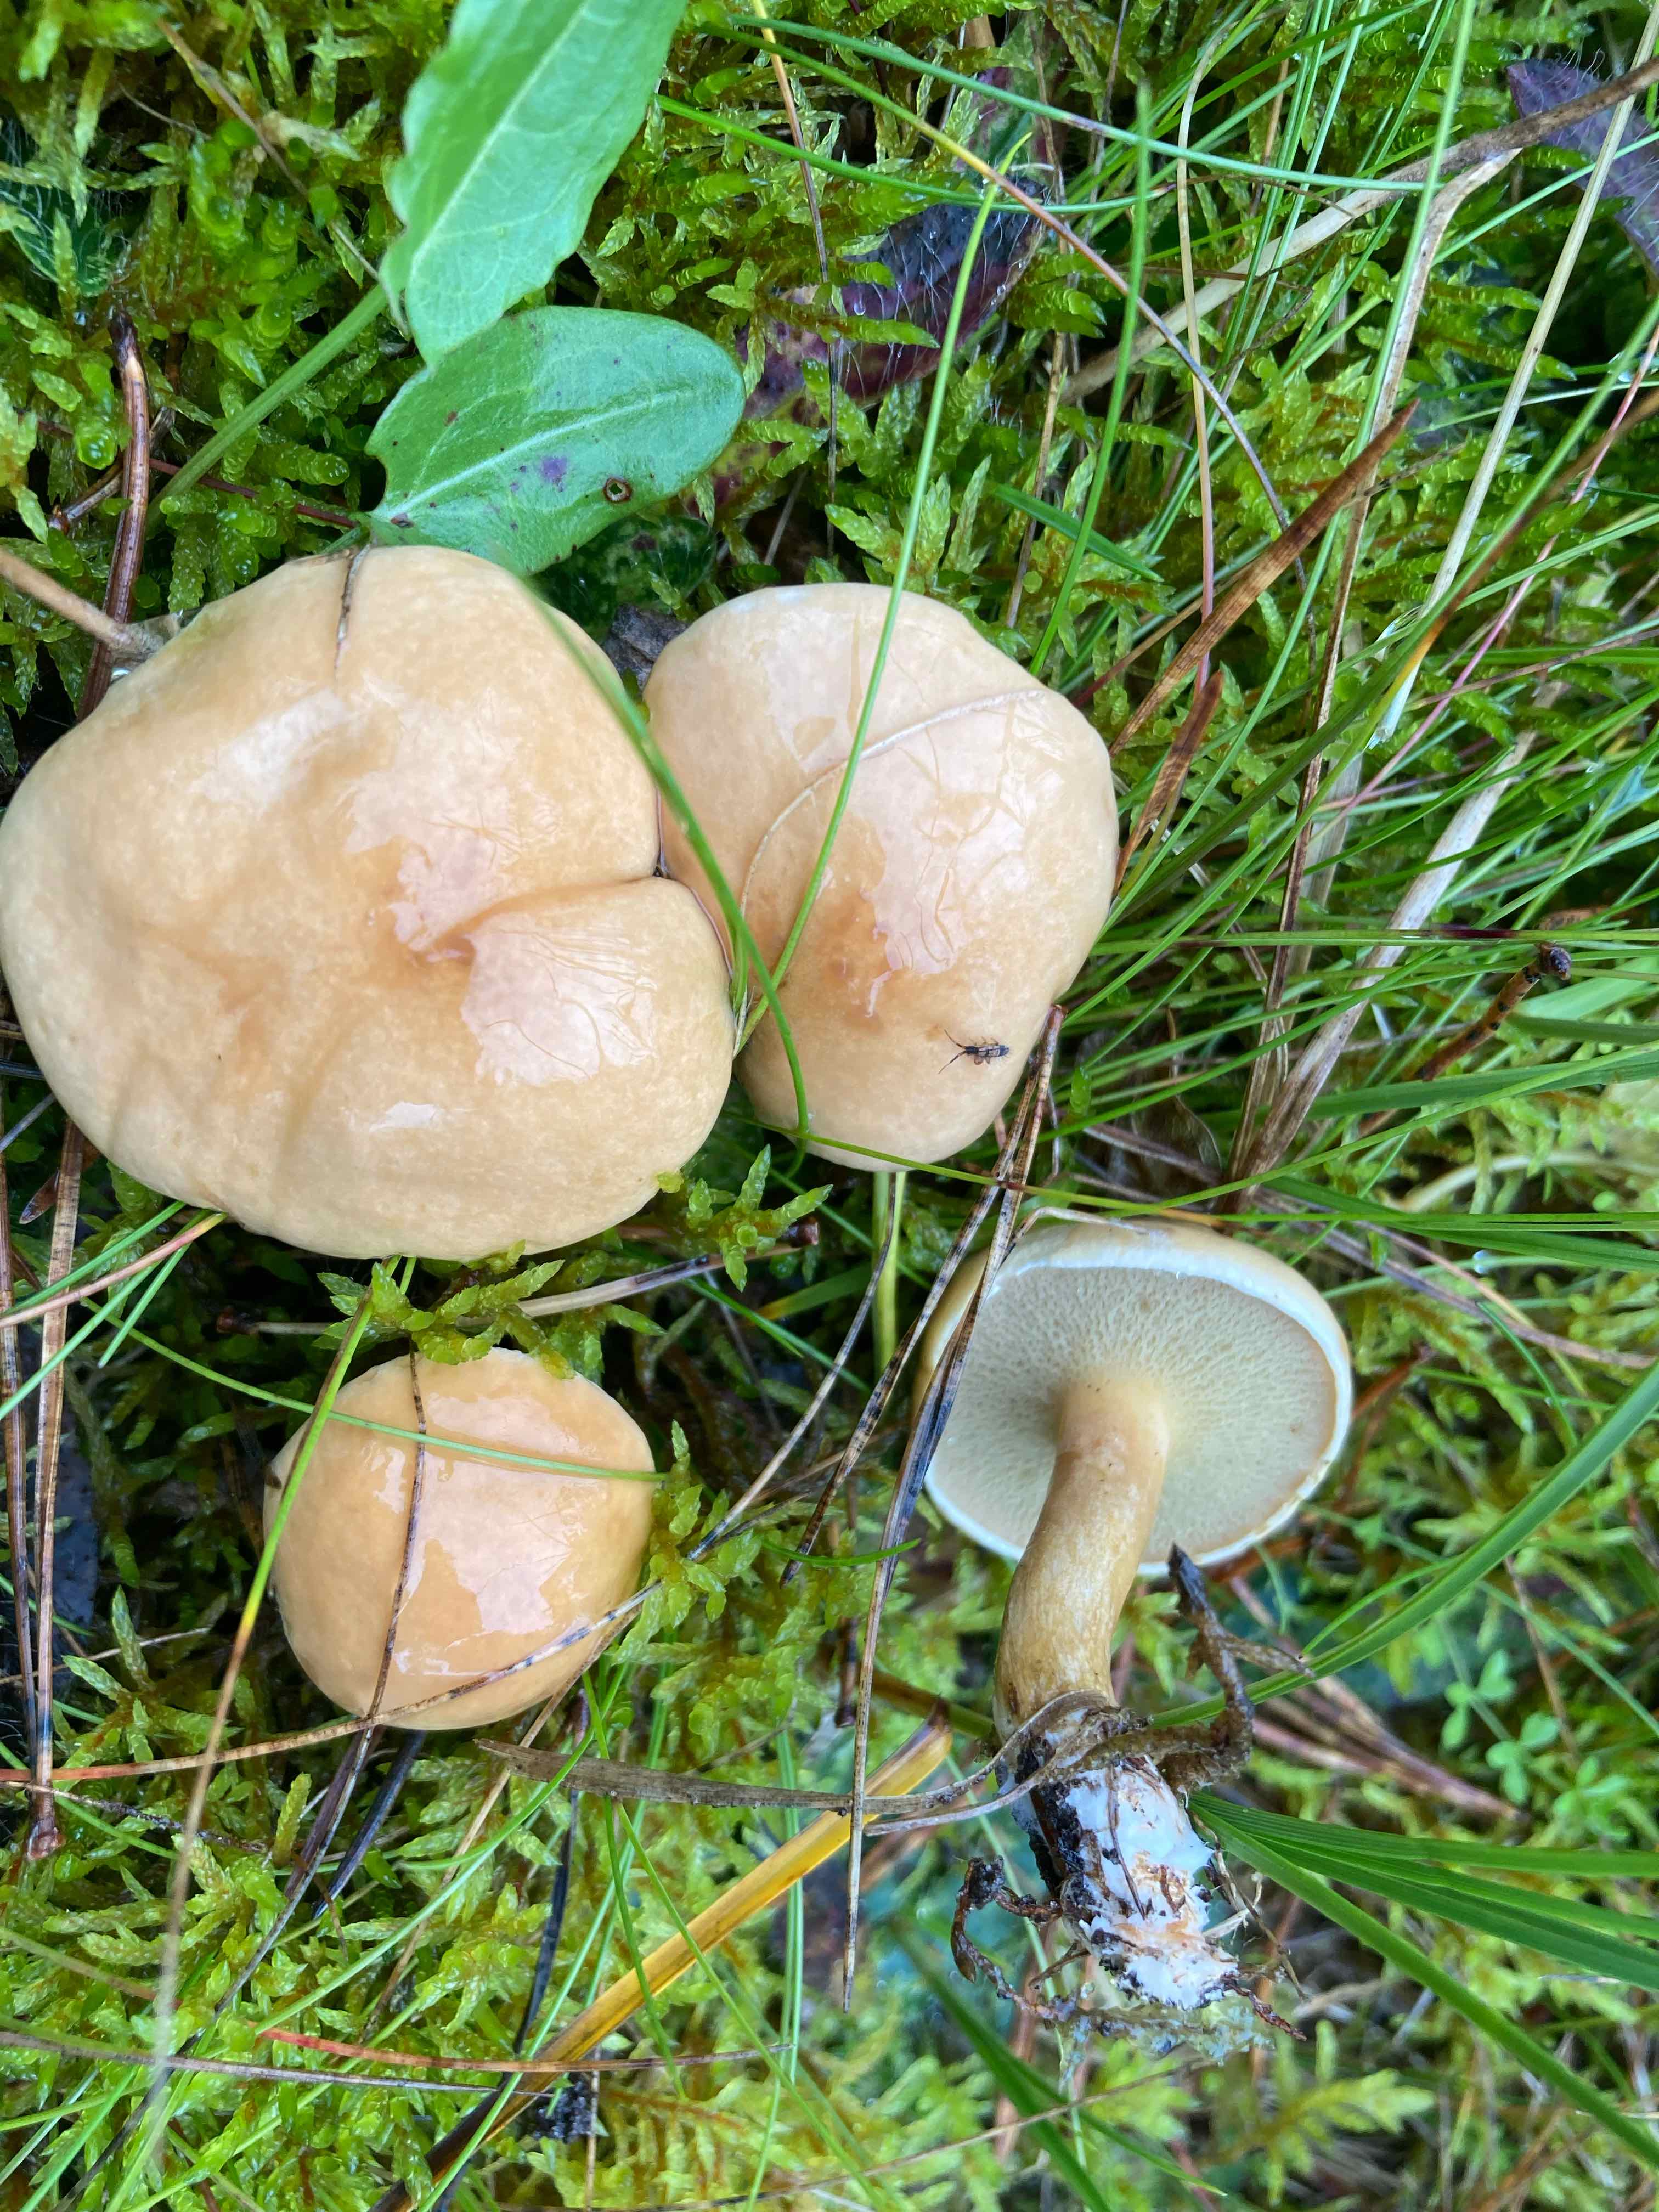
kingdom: Fungi
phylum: Basidiomycota
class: Agaricomycetes
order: Boletales
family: Suillaceae
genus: Suillus
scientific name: Suillus bovinus
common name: grovporet slimrørhat
